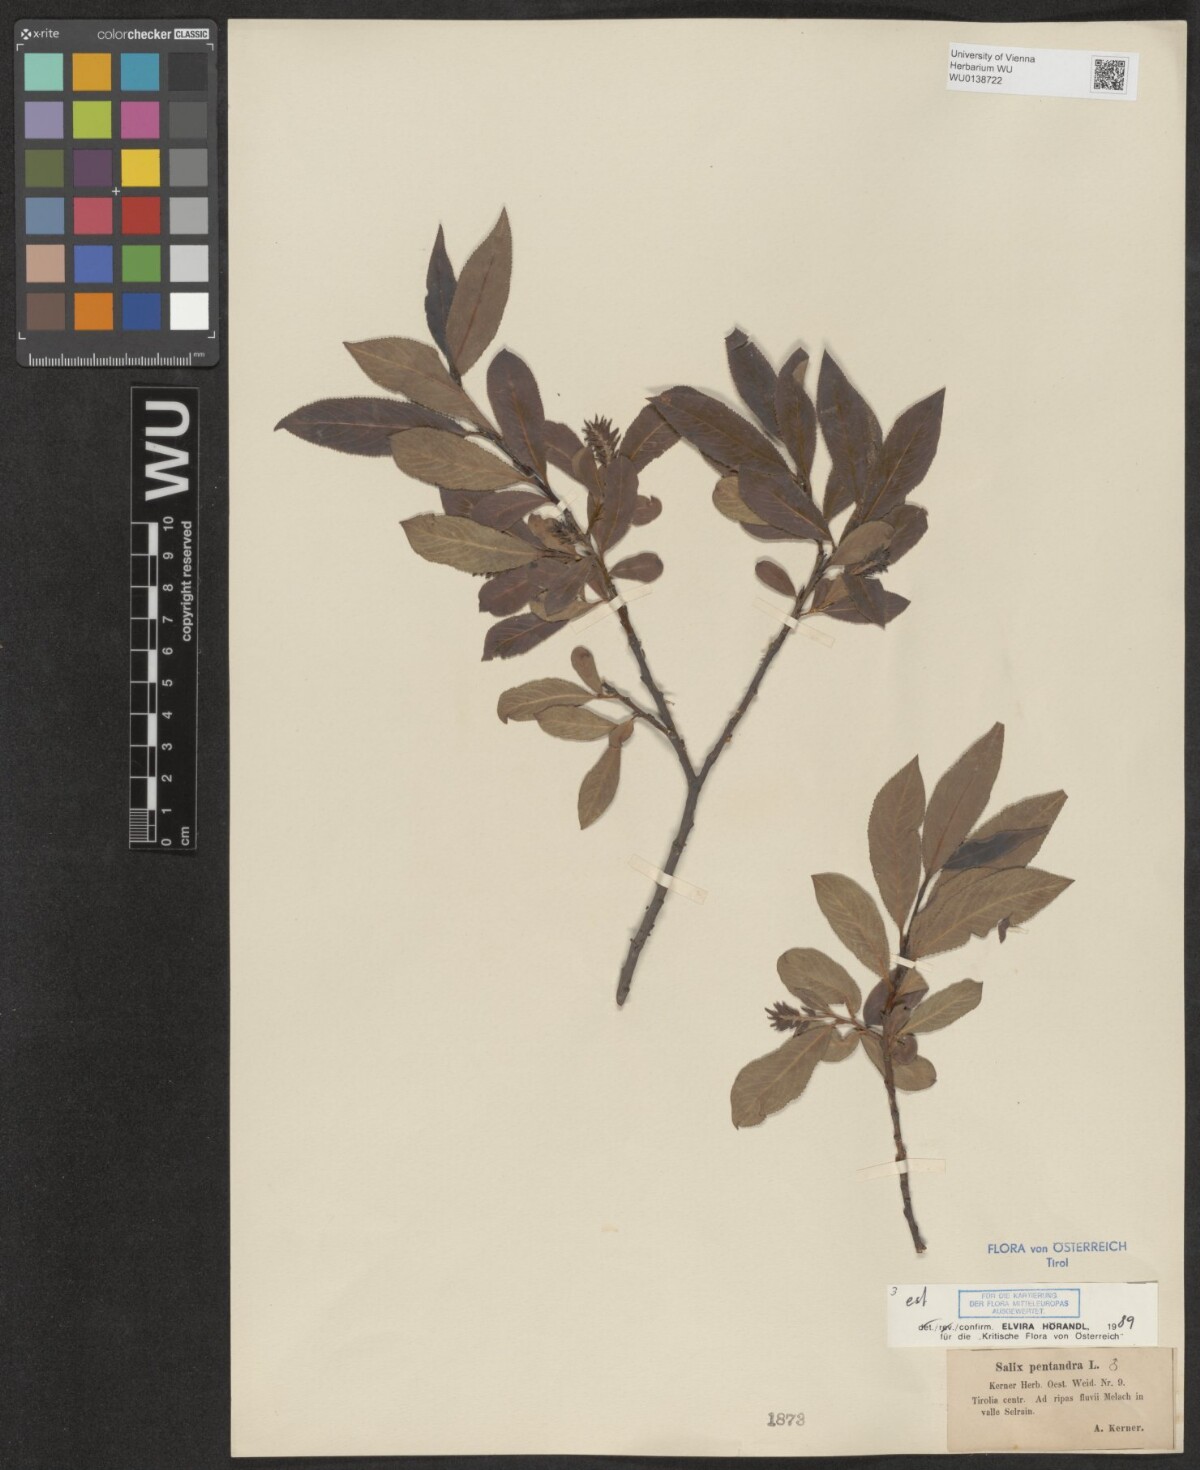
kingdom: Plantae
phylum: Tracheophyta
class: Magnoliopsida
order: Malpighiales
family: Salicaceae
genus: Salix
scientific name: Salix pentandra
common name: Bay willow
